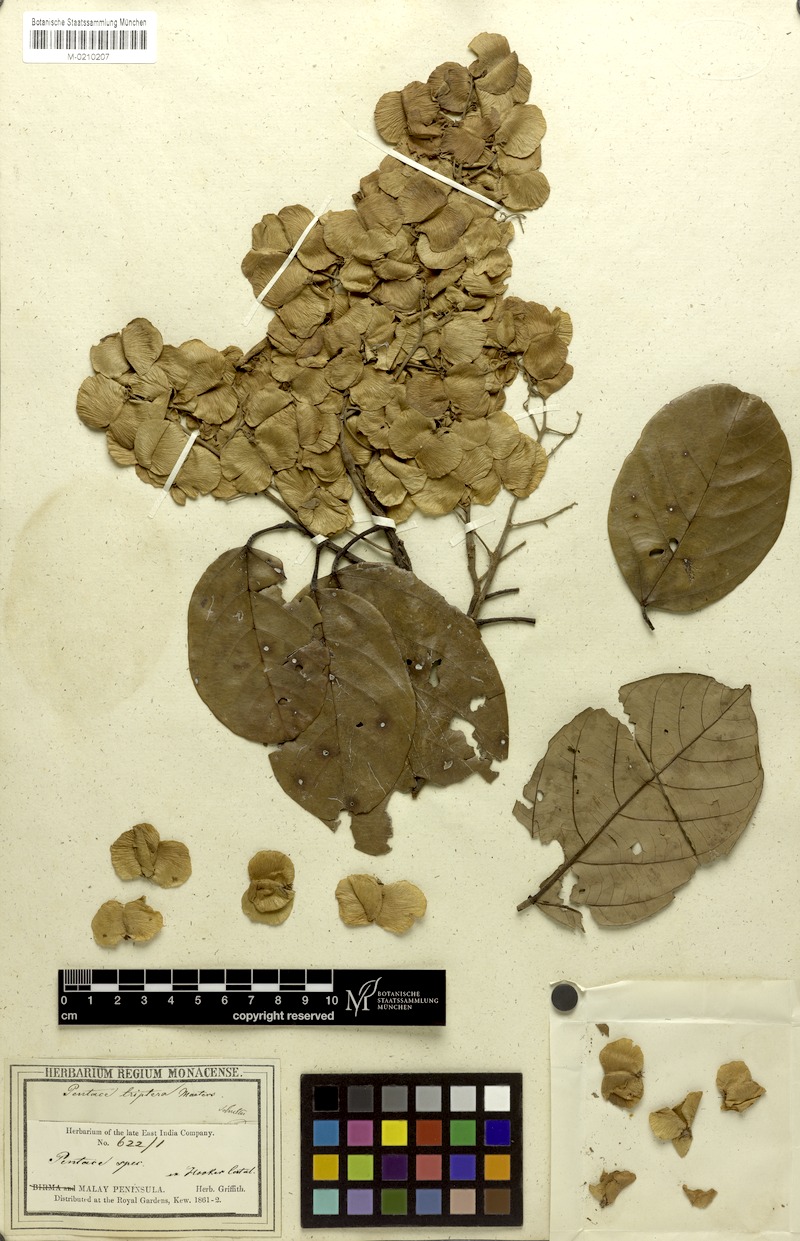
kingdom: Plantae
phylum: Tracheophyta
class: Magnoliopsida
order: Malvales
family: Malvaceae
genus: Pentace
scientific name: Pentace triptera
